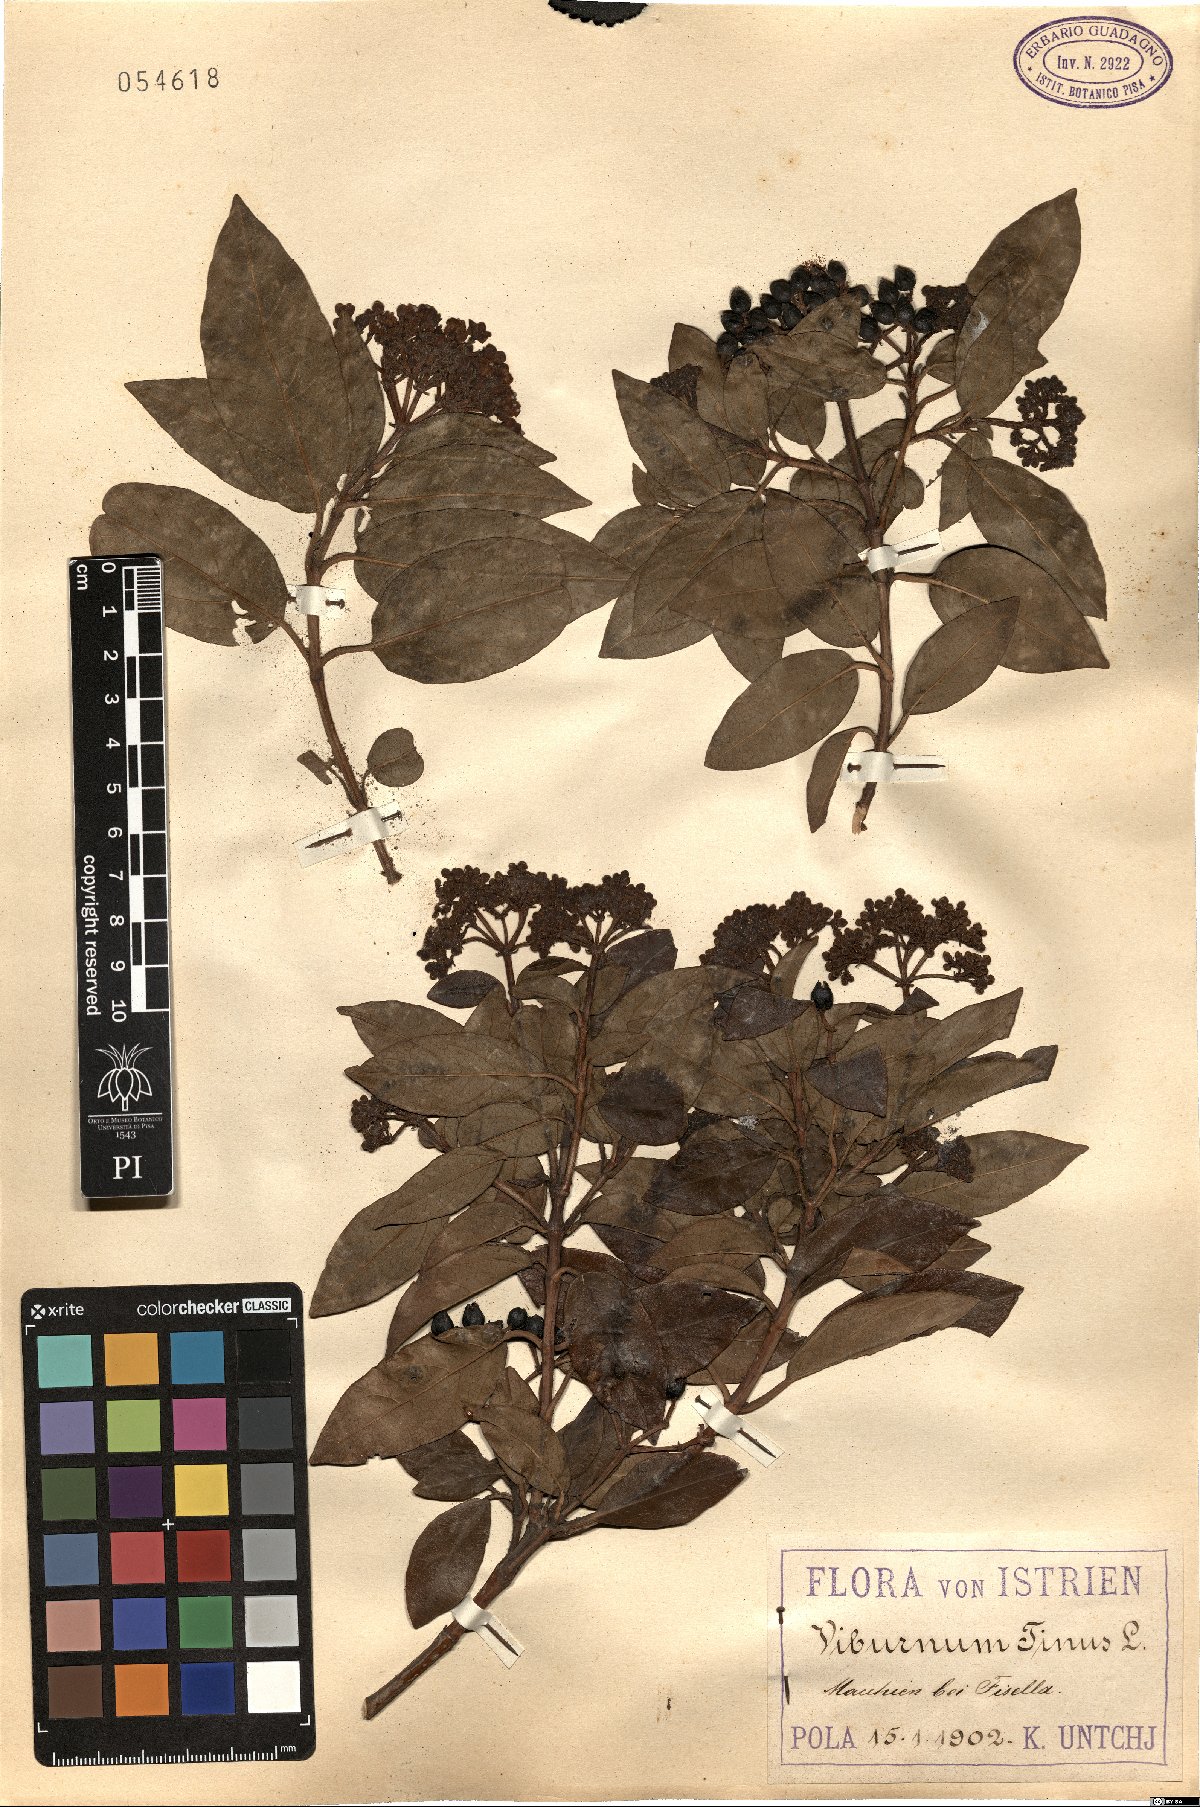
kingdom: Plantae
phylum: Tracheophyta
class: Magnoliopsida
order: Dipsacales
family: Viburnaceae
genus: Viburnum
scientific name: Viburnum tinus
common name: Laurustinus
